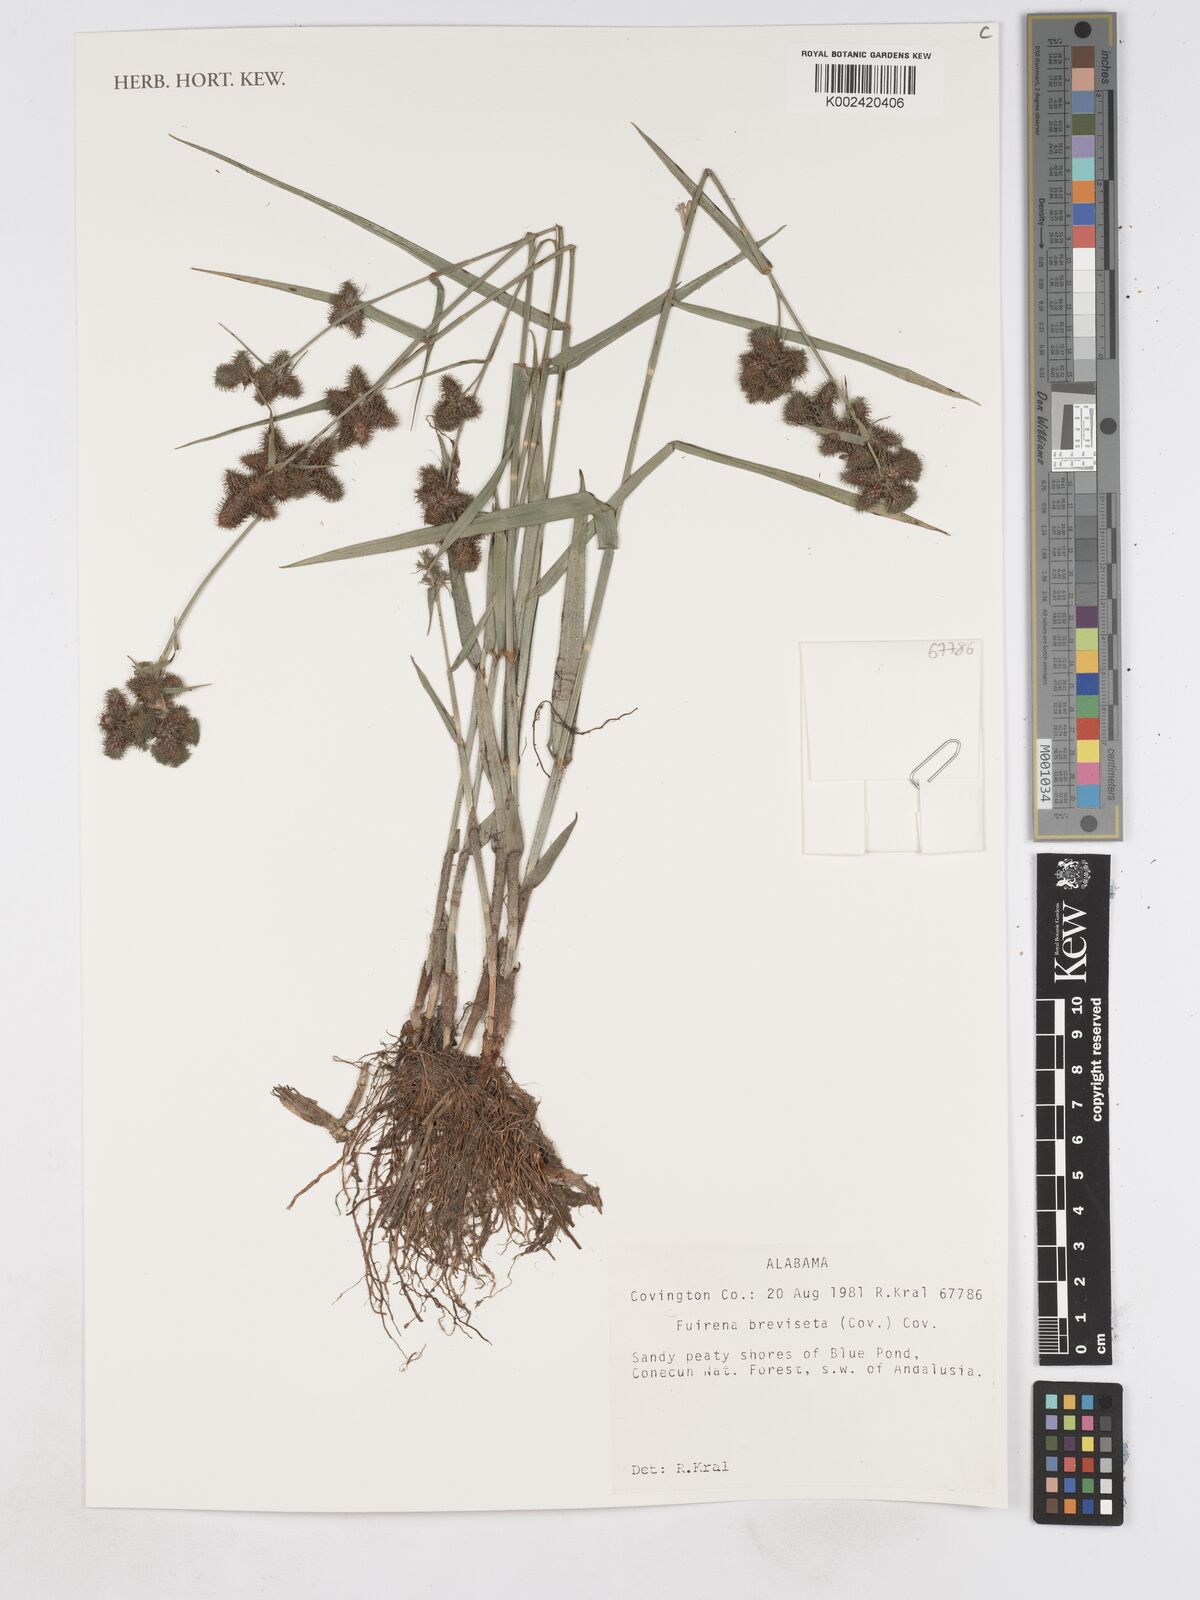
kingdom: Plantae
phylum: Tracheophyta
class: Liliopsida
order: Poales
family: Cyperaceae
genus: Fuirena
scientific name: Fuirena breviseta
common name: Saltmarsh umbrella sedge
